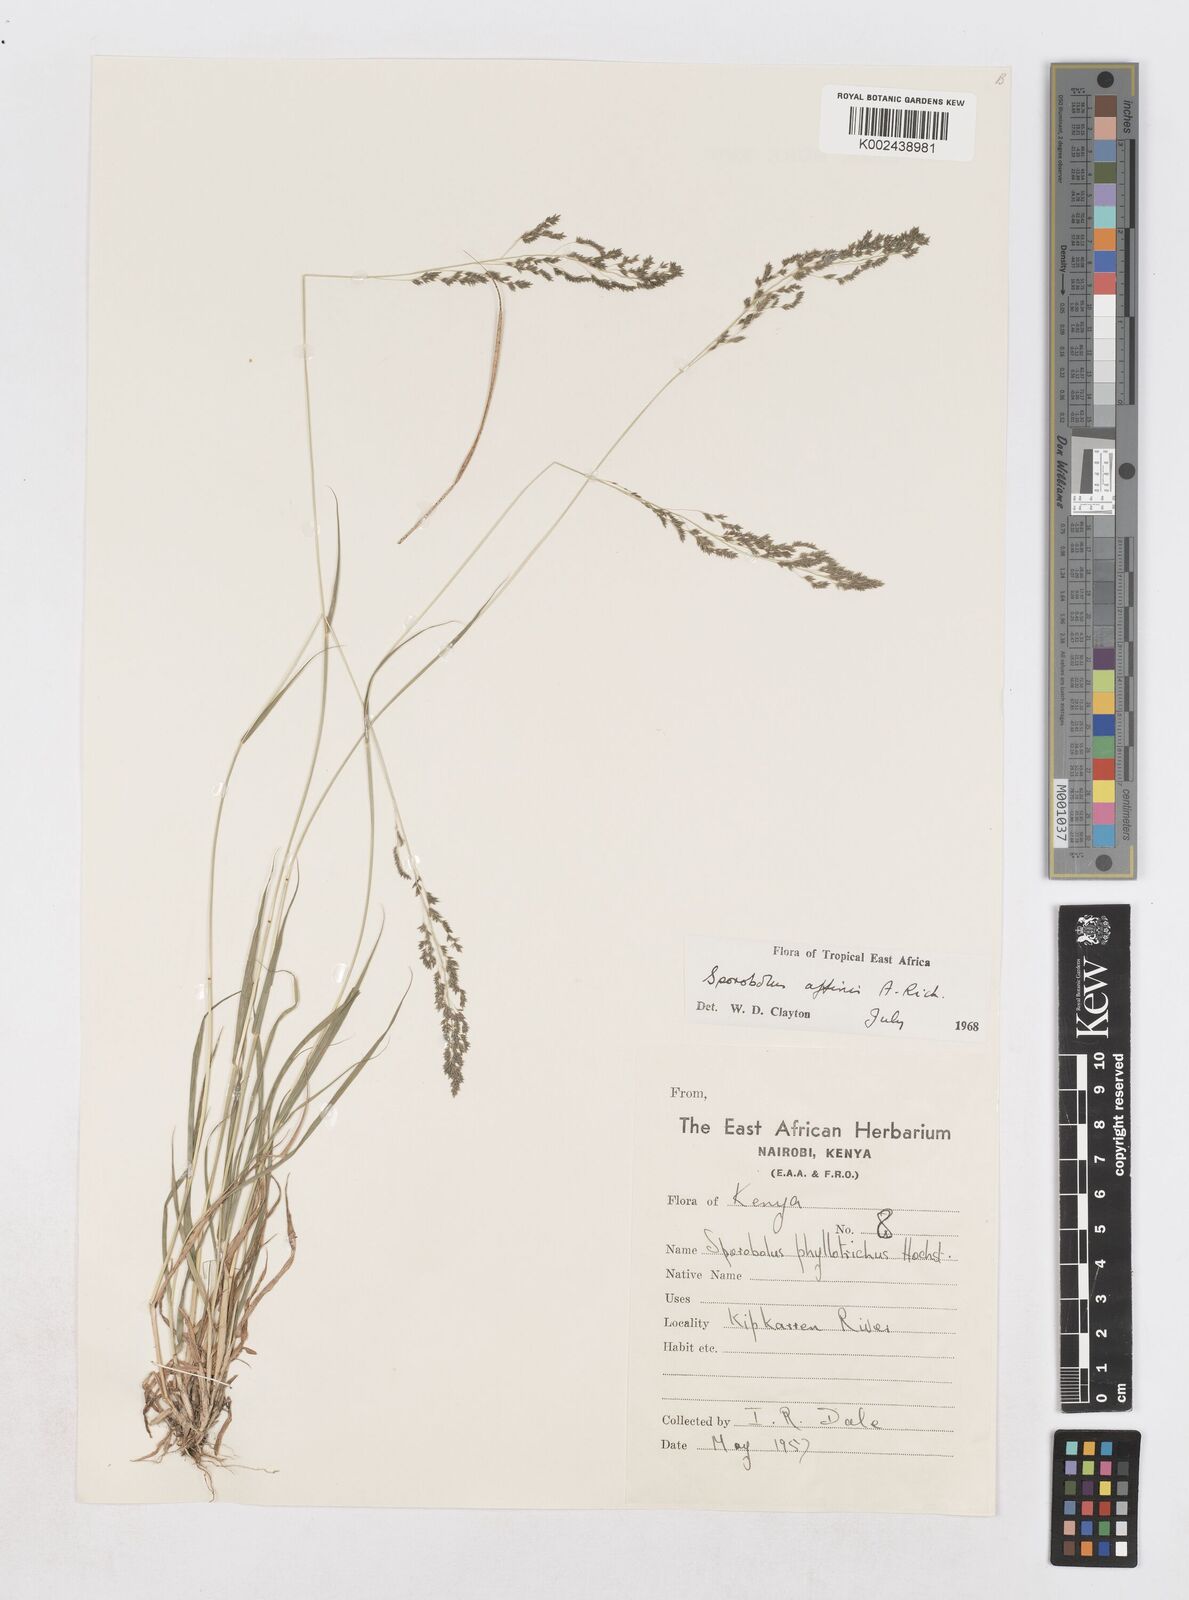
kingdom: Plantae
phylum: Tracheophyta
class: Liliopsida
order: Poales
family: Poaceae
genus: Sporobolus
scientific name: Sporobolus confinis
